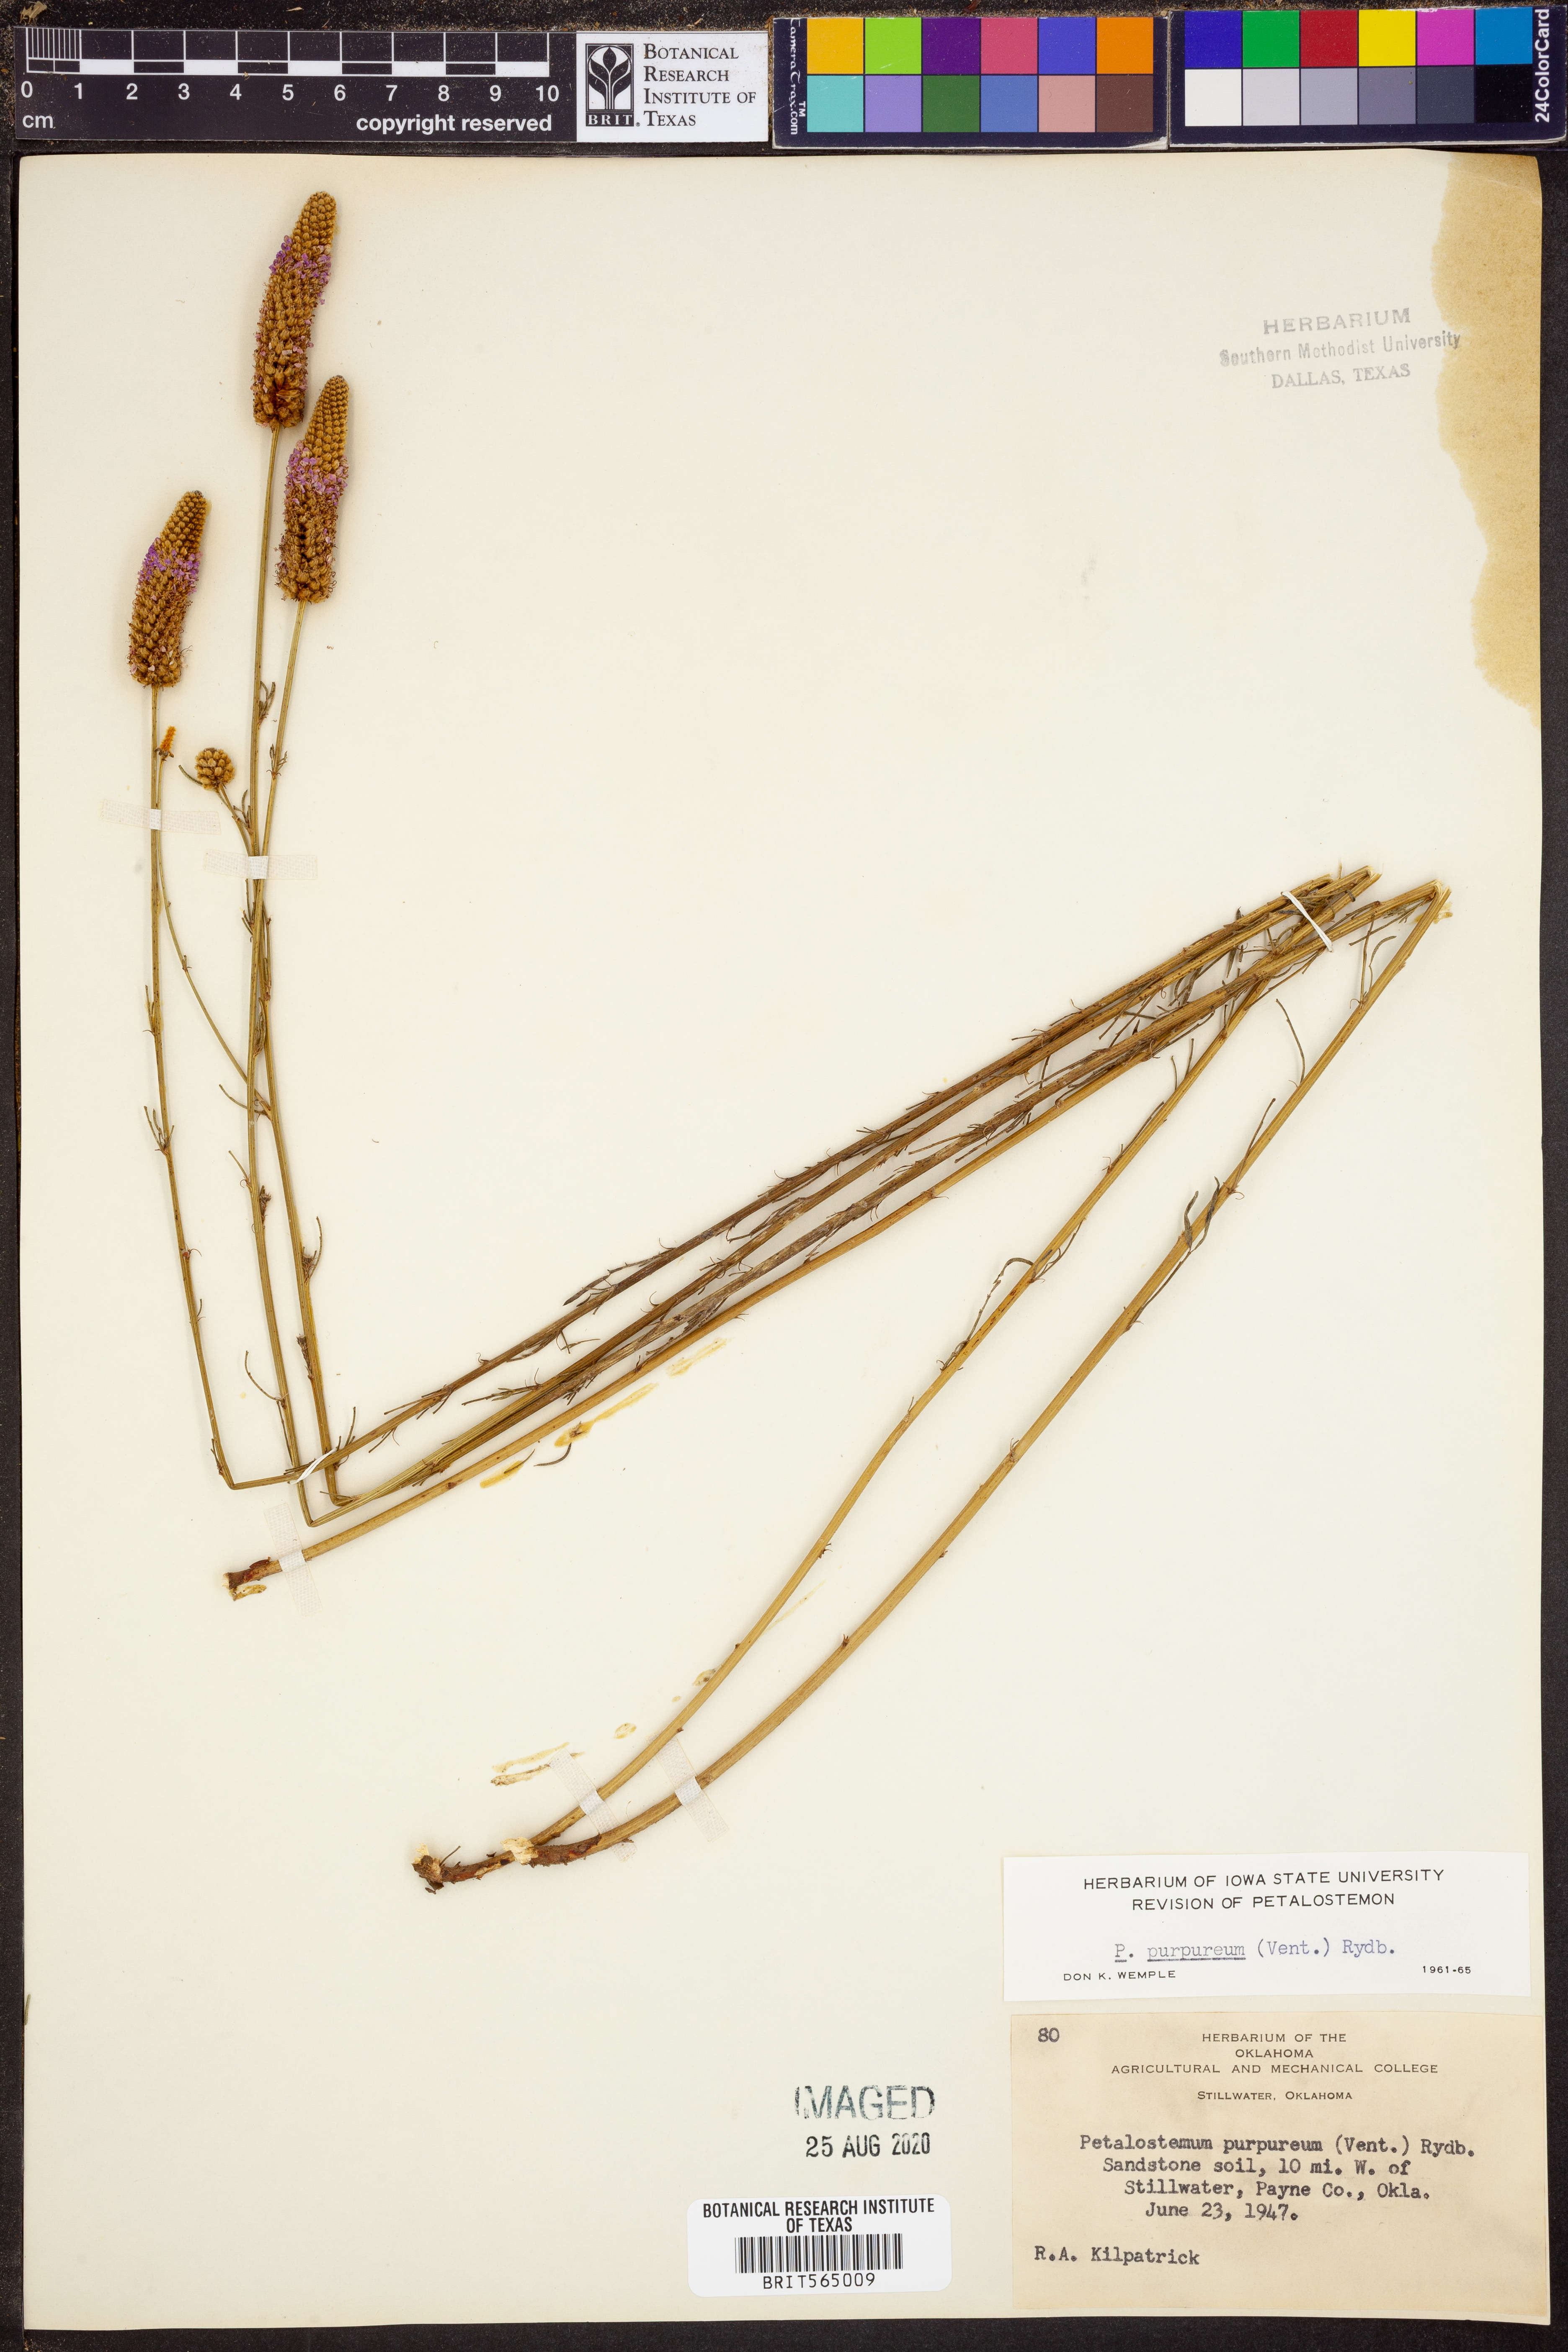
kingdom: Plantae
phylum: Tracheophyta
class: Magnoliopsida
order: Fabales
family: Fabaceae
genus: Dalea
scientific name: Dalea purpurea
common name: Purple prairie-clover
